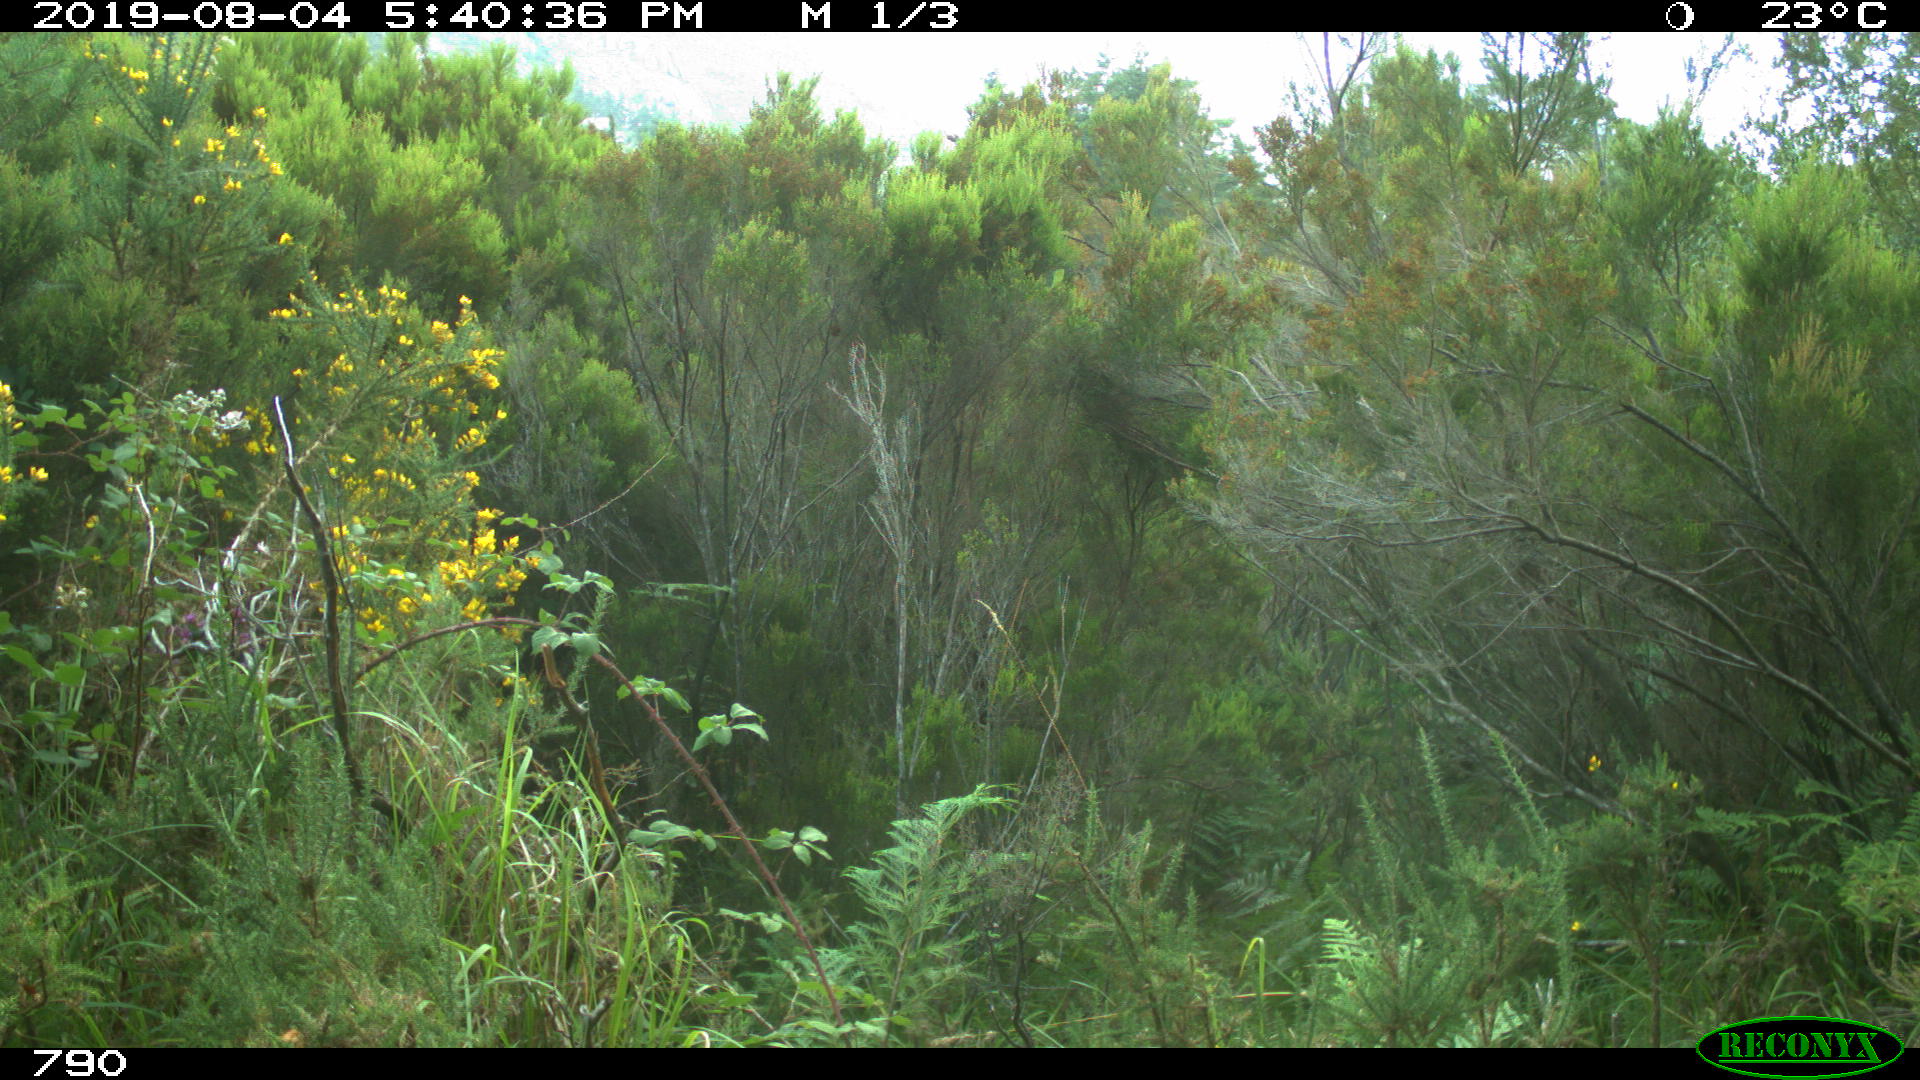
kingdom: Animalia
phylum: Chordata
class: Mammalia
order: Artiodactyla
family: Bovidae
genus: Bos
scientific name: Bos taurus
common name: Domesticated cattle
